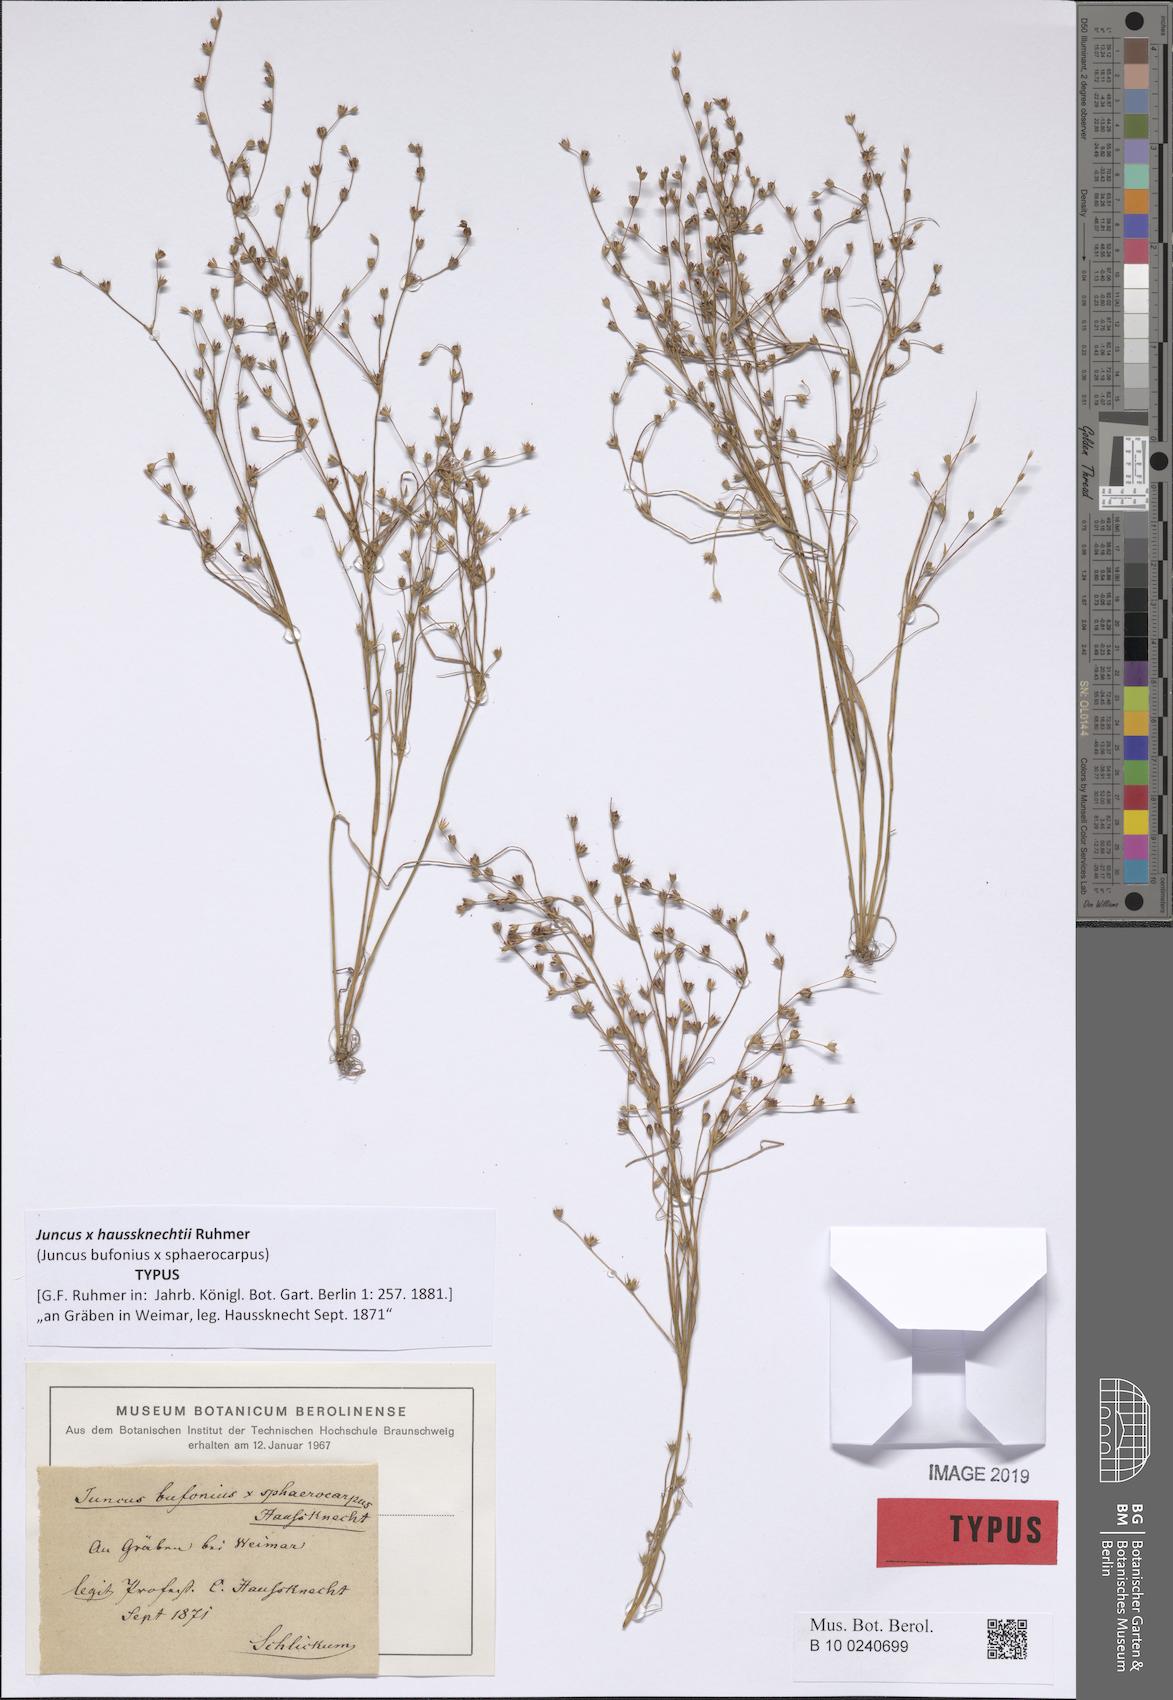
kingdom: Plantae
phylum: Tracheophyta
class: Liliopsida
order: Poales
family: Juncaceae
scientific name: Juncaceae
